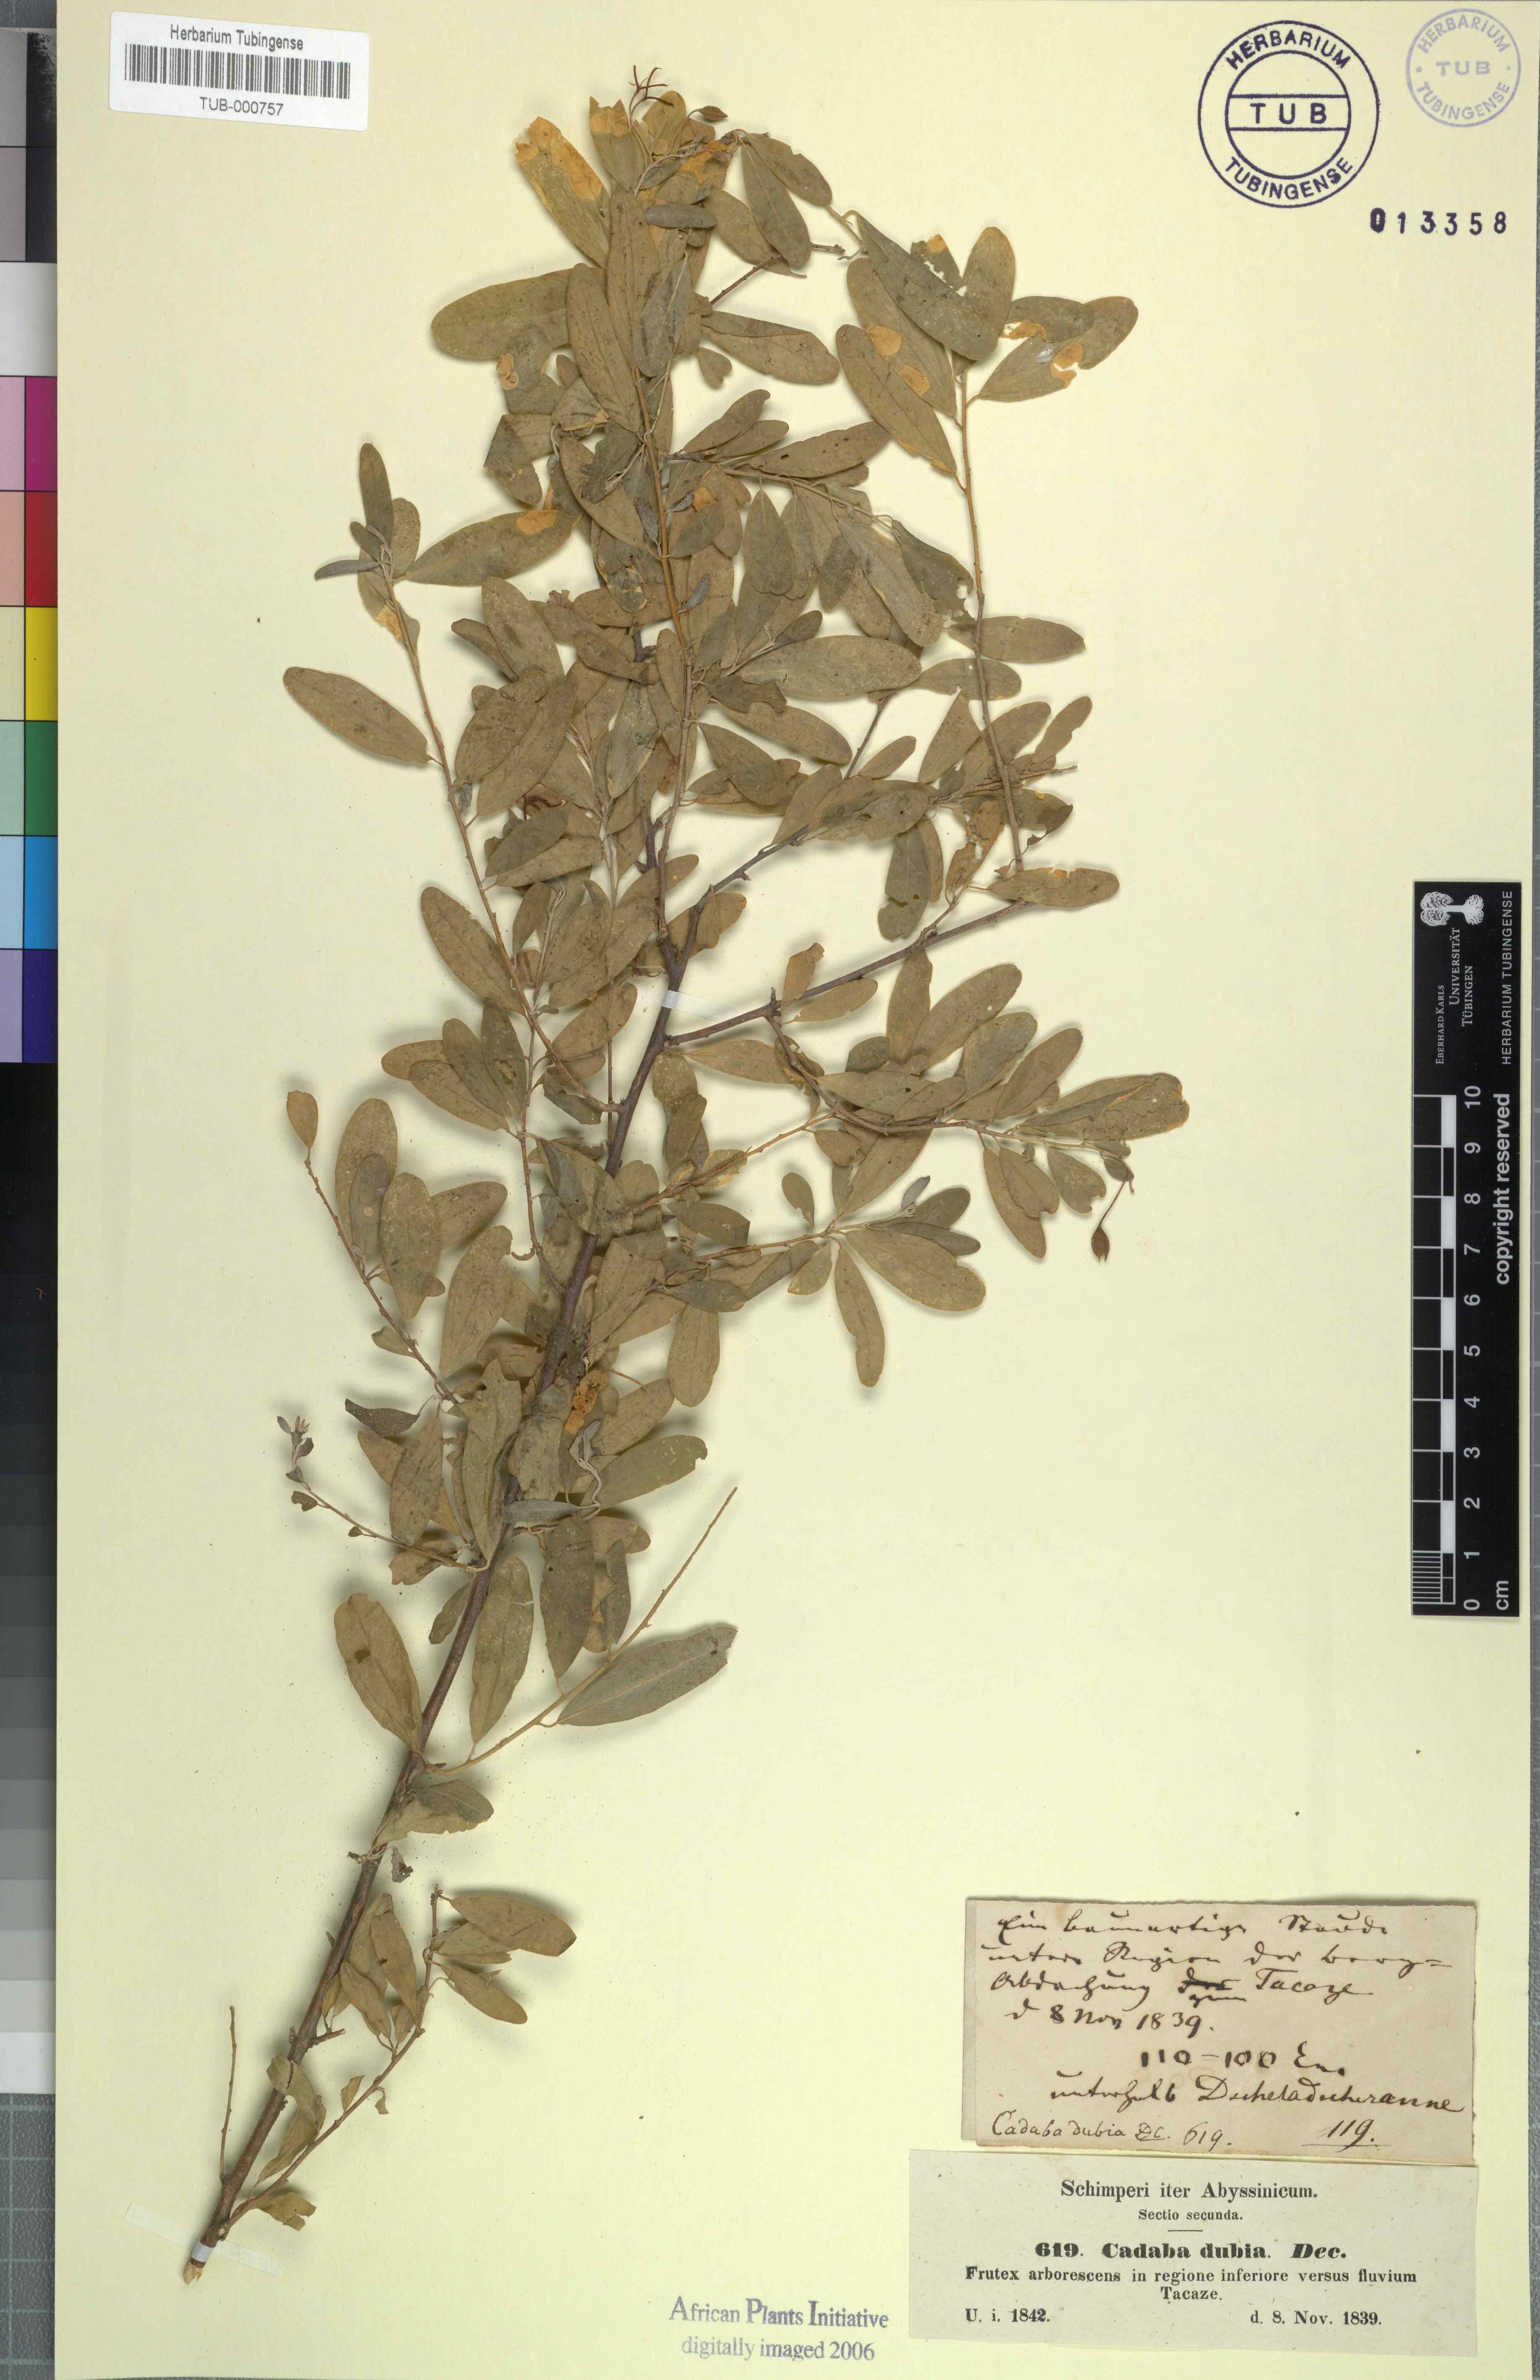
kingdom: Plantae
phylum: Tracheophyta
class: Magnoliopsida
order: Brassicales
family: Capparaceae
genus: Cadaba
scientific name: Cadaba farinosa
